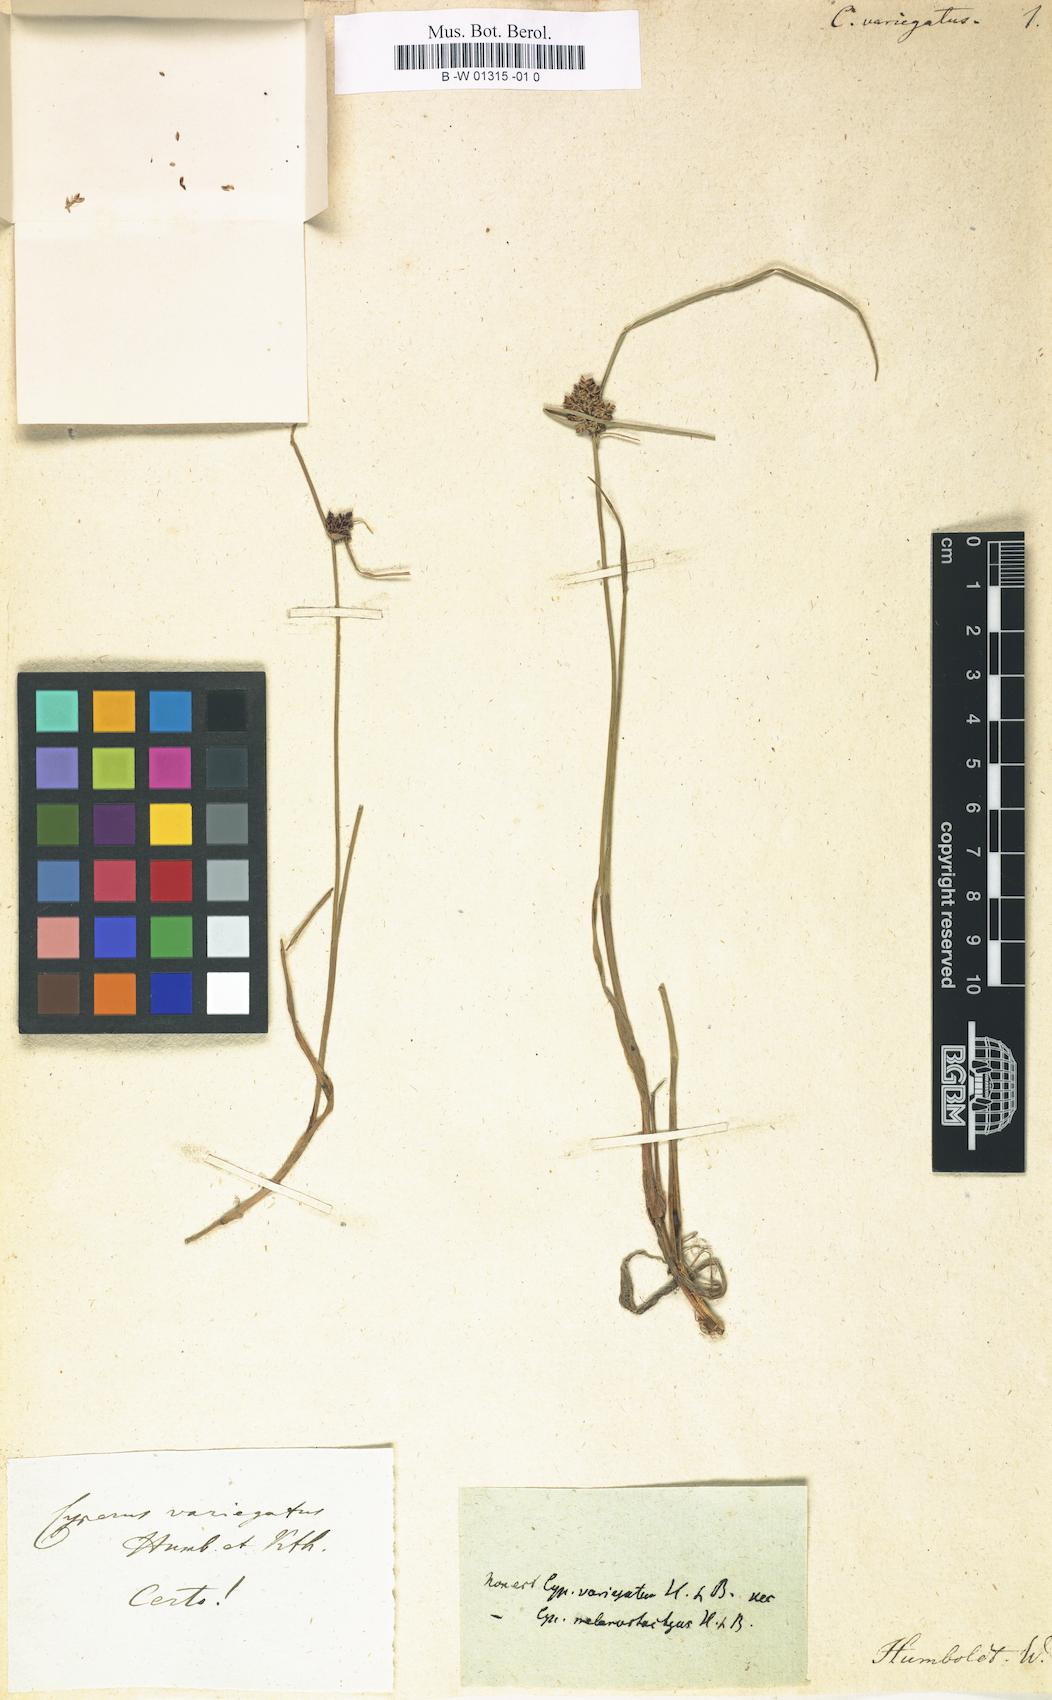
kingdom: Plantae
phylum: Tracheophyta
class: Liliopsida
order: Poales
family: Cyperaceae
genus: Cyperus
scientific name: Cyperus melanostachyus
